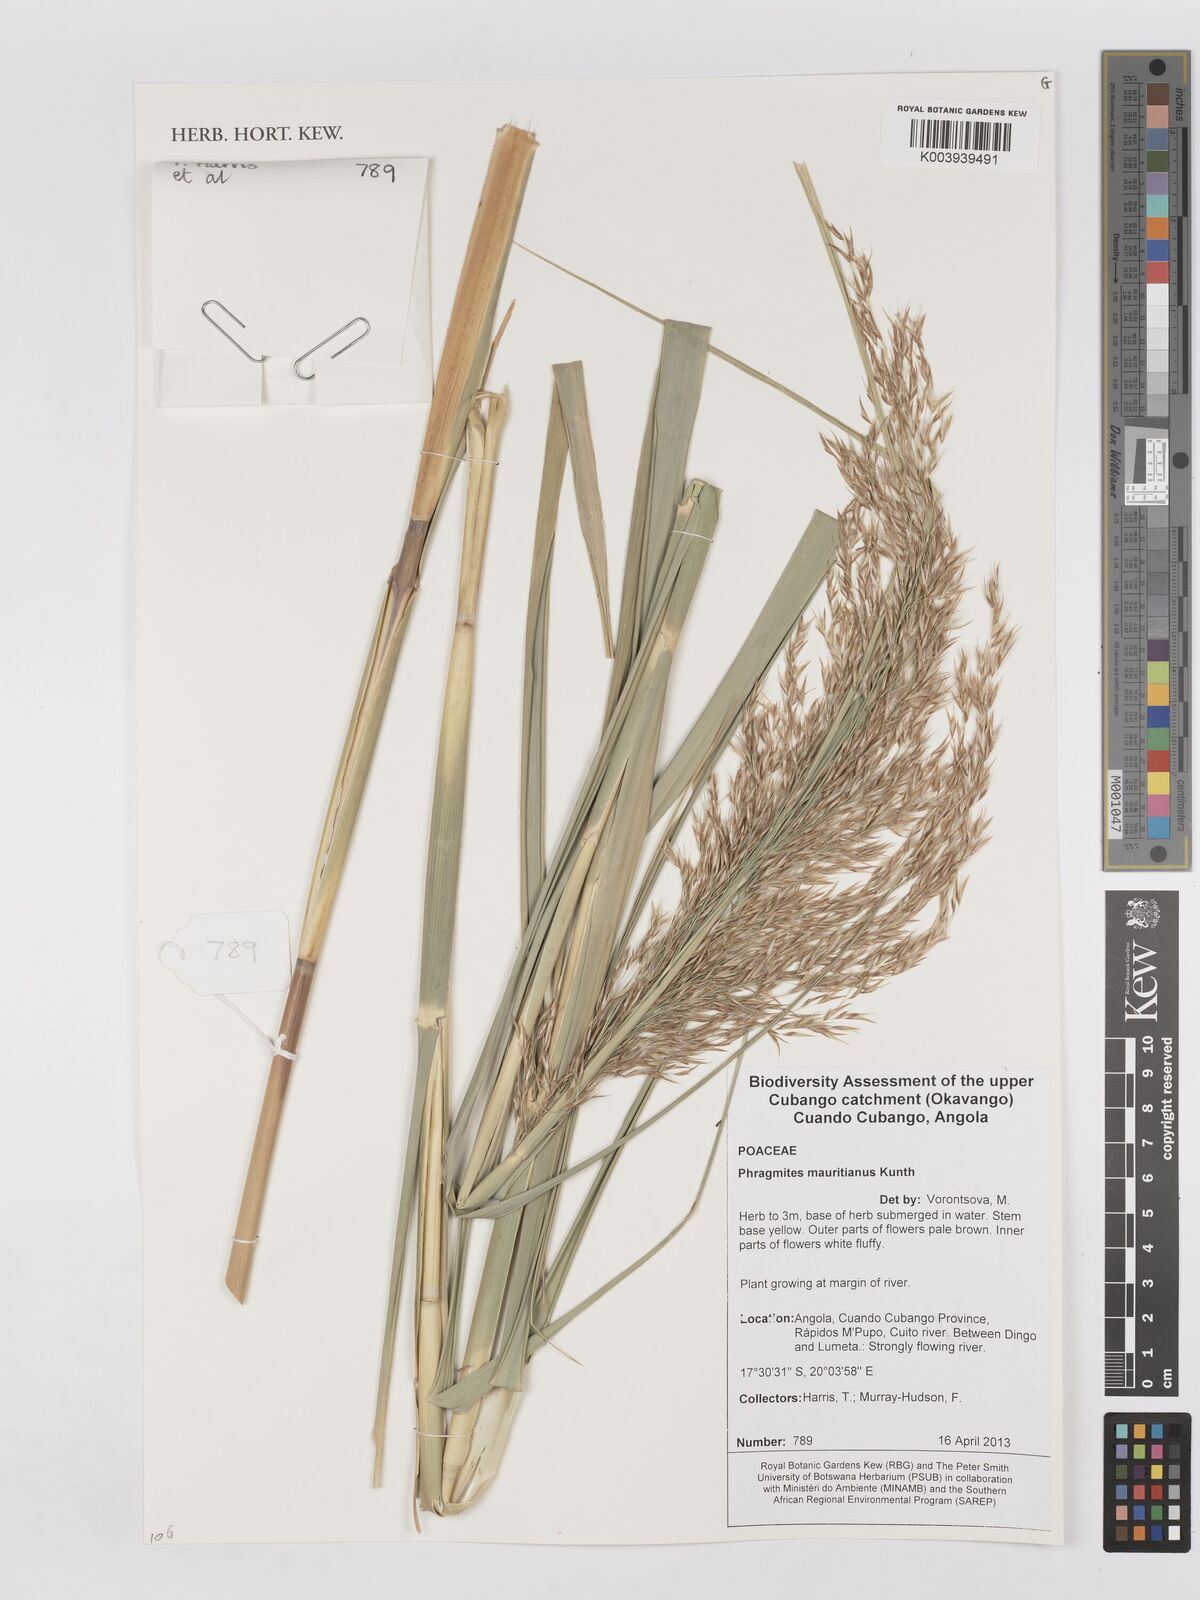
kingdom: Plantae
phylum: Tracheophyta
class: Liliopsida
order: Poales
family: Poaceae
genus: Phragmites
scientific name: Phragmites mauritianus
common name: Reed grass
